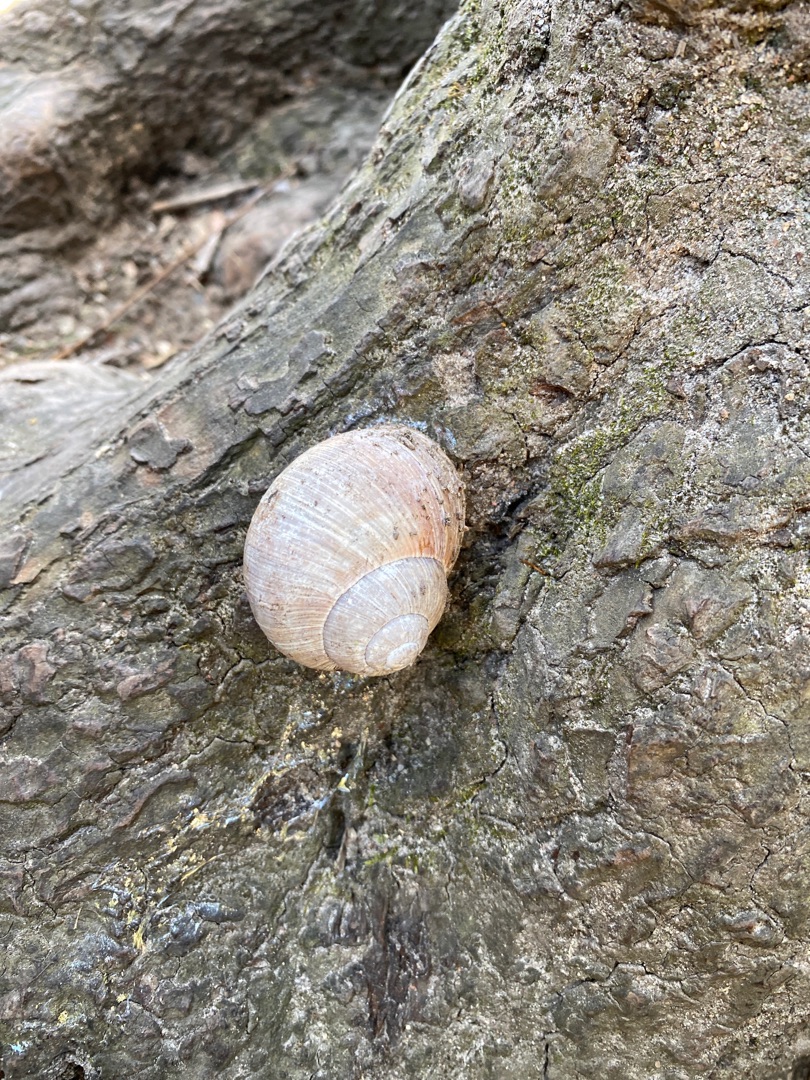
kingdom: Animalia
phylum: Mollusca
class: Gastropoda
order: Stylommatophora
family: Helicidae
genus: Helix
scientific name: Helix pomatia
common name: Vinbjergsnegl
